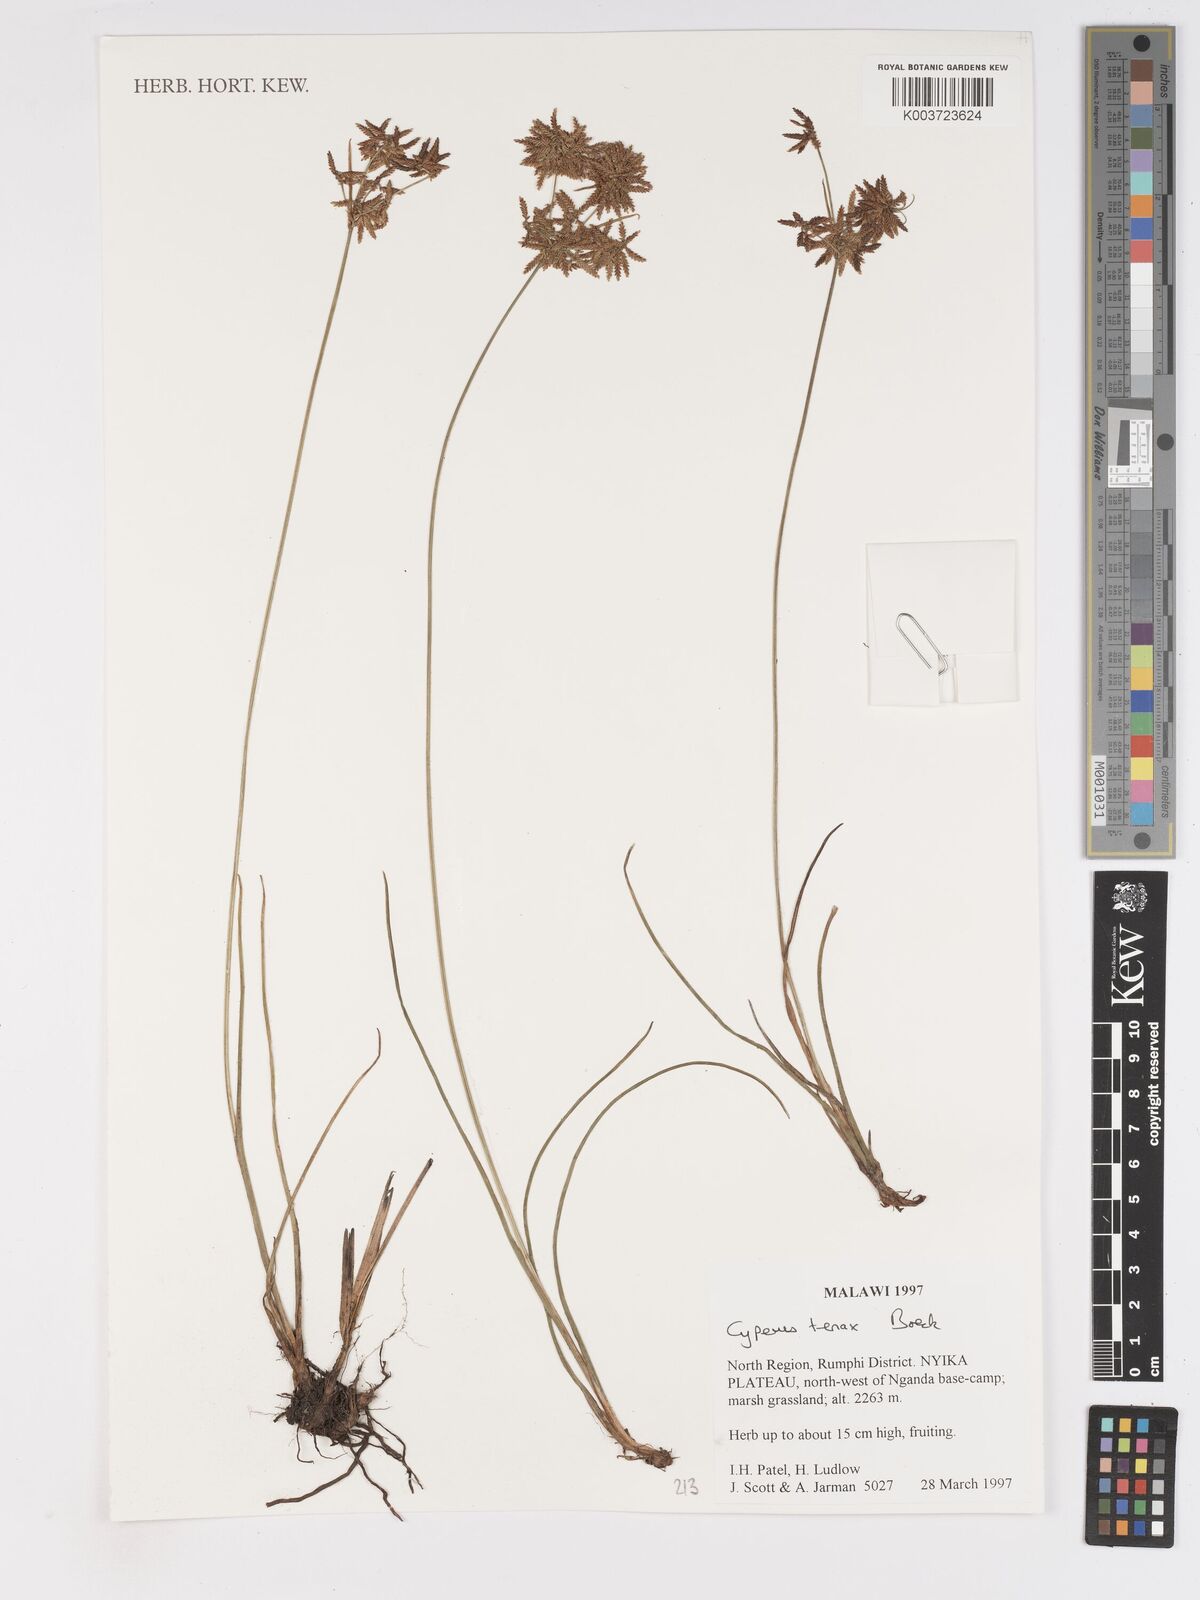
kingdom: Plantae
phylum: Tracheophyta
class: Liliopsida
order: Poales
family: Cyperaceae
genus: Cyperus
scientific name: Cyperus tenax
